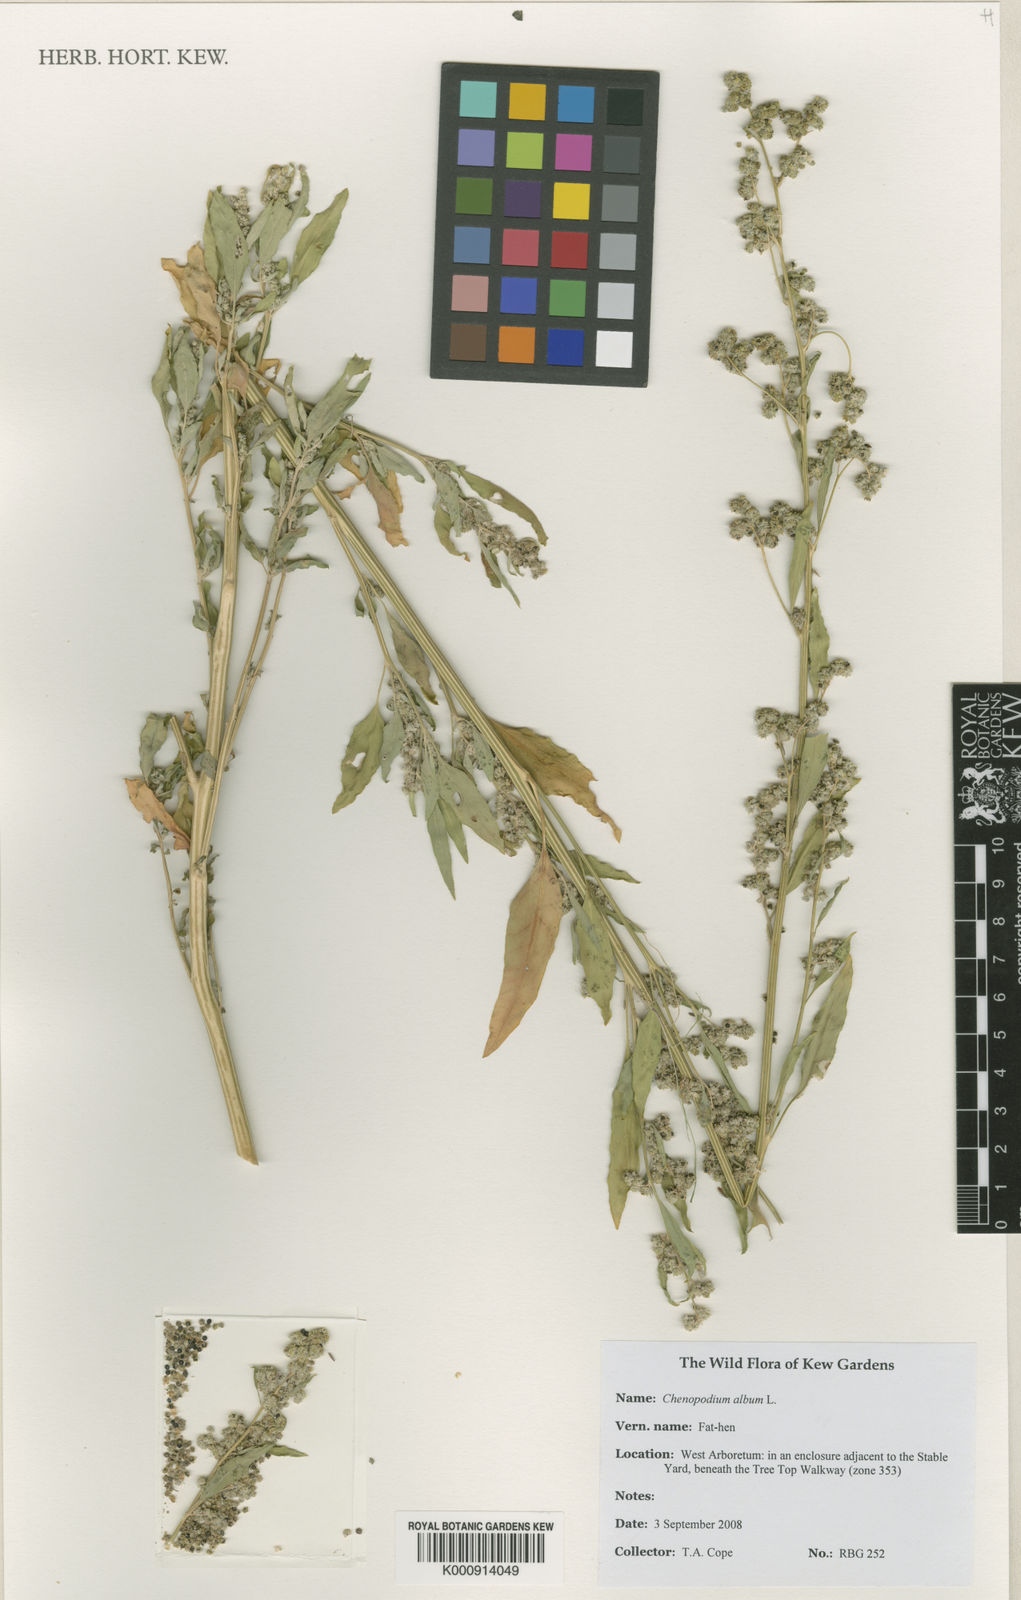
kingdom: Plantae
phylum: Tracheophyta
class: Magnoliopsida
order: Caryophyllales
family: Amaranthaceae
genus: Chenopodium
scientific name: Chenopodium album
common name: Fat-hen
